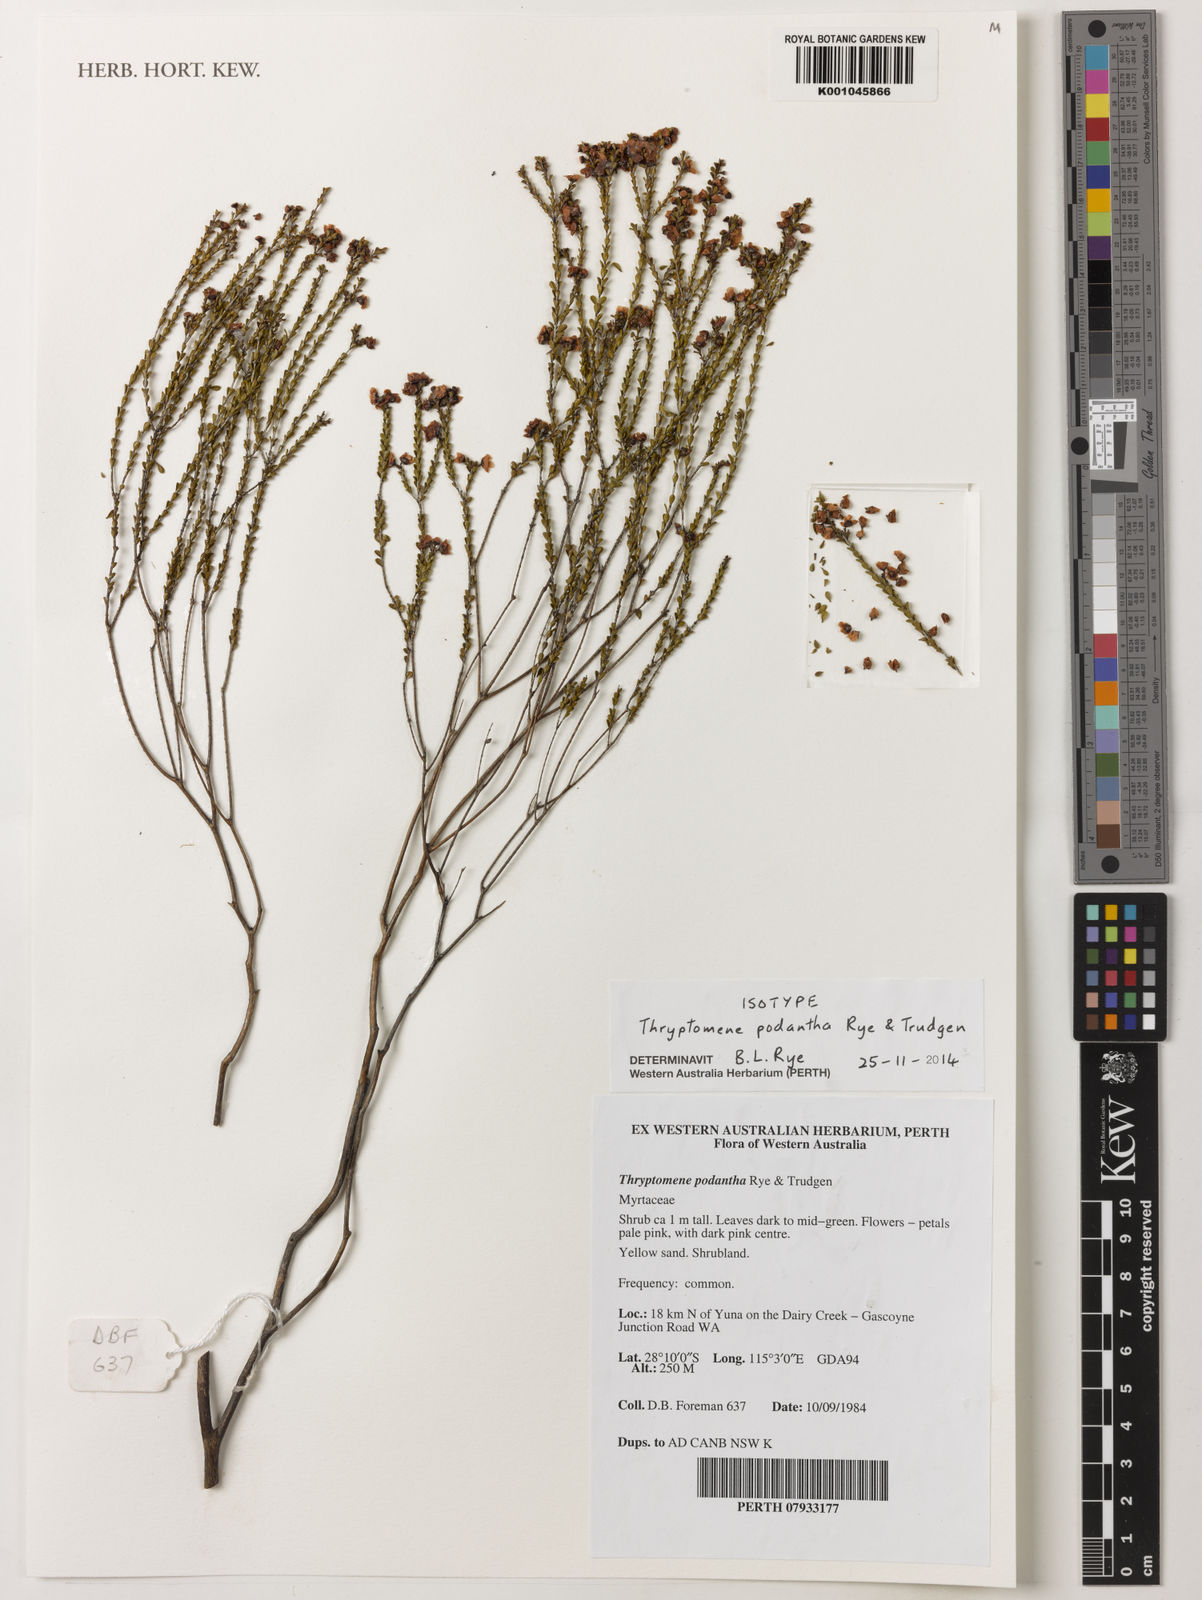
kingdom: Plantae
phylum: Tracheophyta
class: Magnoliopsida
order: Myrtales
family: Myrtaceae
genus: Thryptomene
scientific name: Thryptomene podantha
